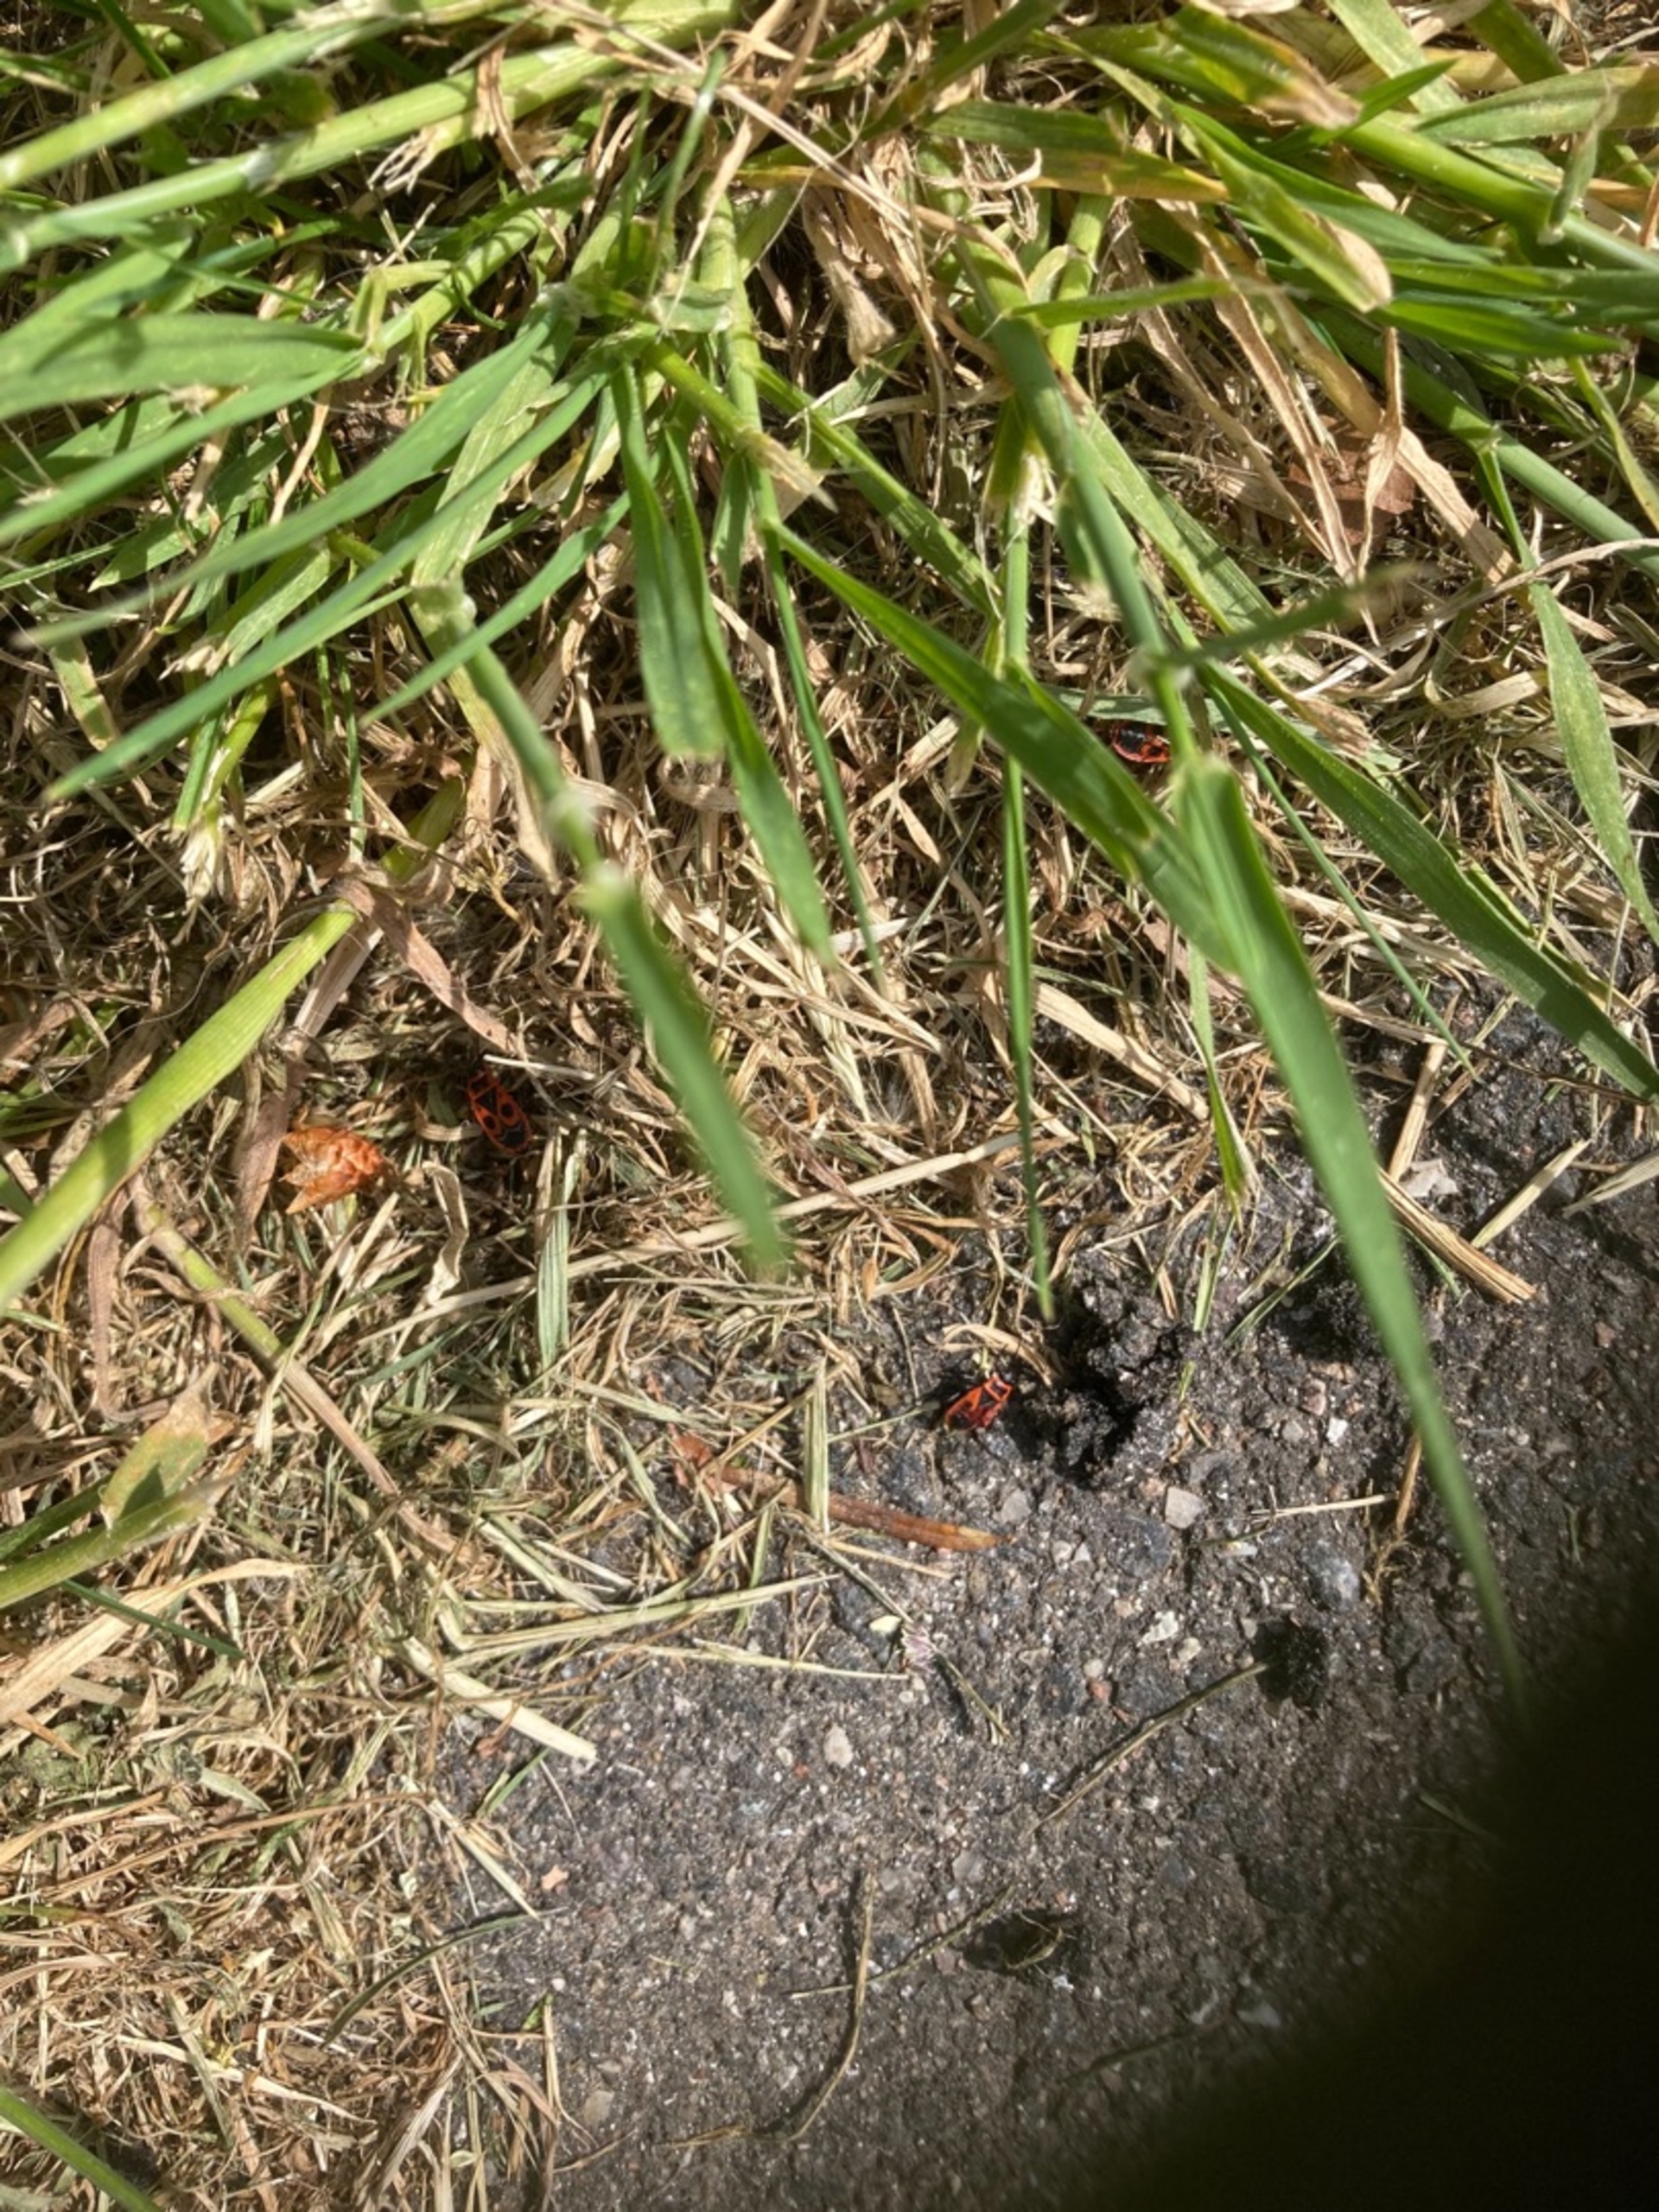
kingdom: Animalia
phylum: Arthropoda
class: Insecta
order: Hemiptera
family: Pyrrhocoridae
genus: Pyrrhocoris
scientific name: Pyrrhocoris apterus
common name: Ildtæge
